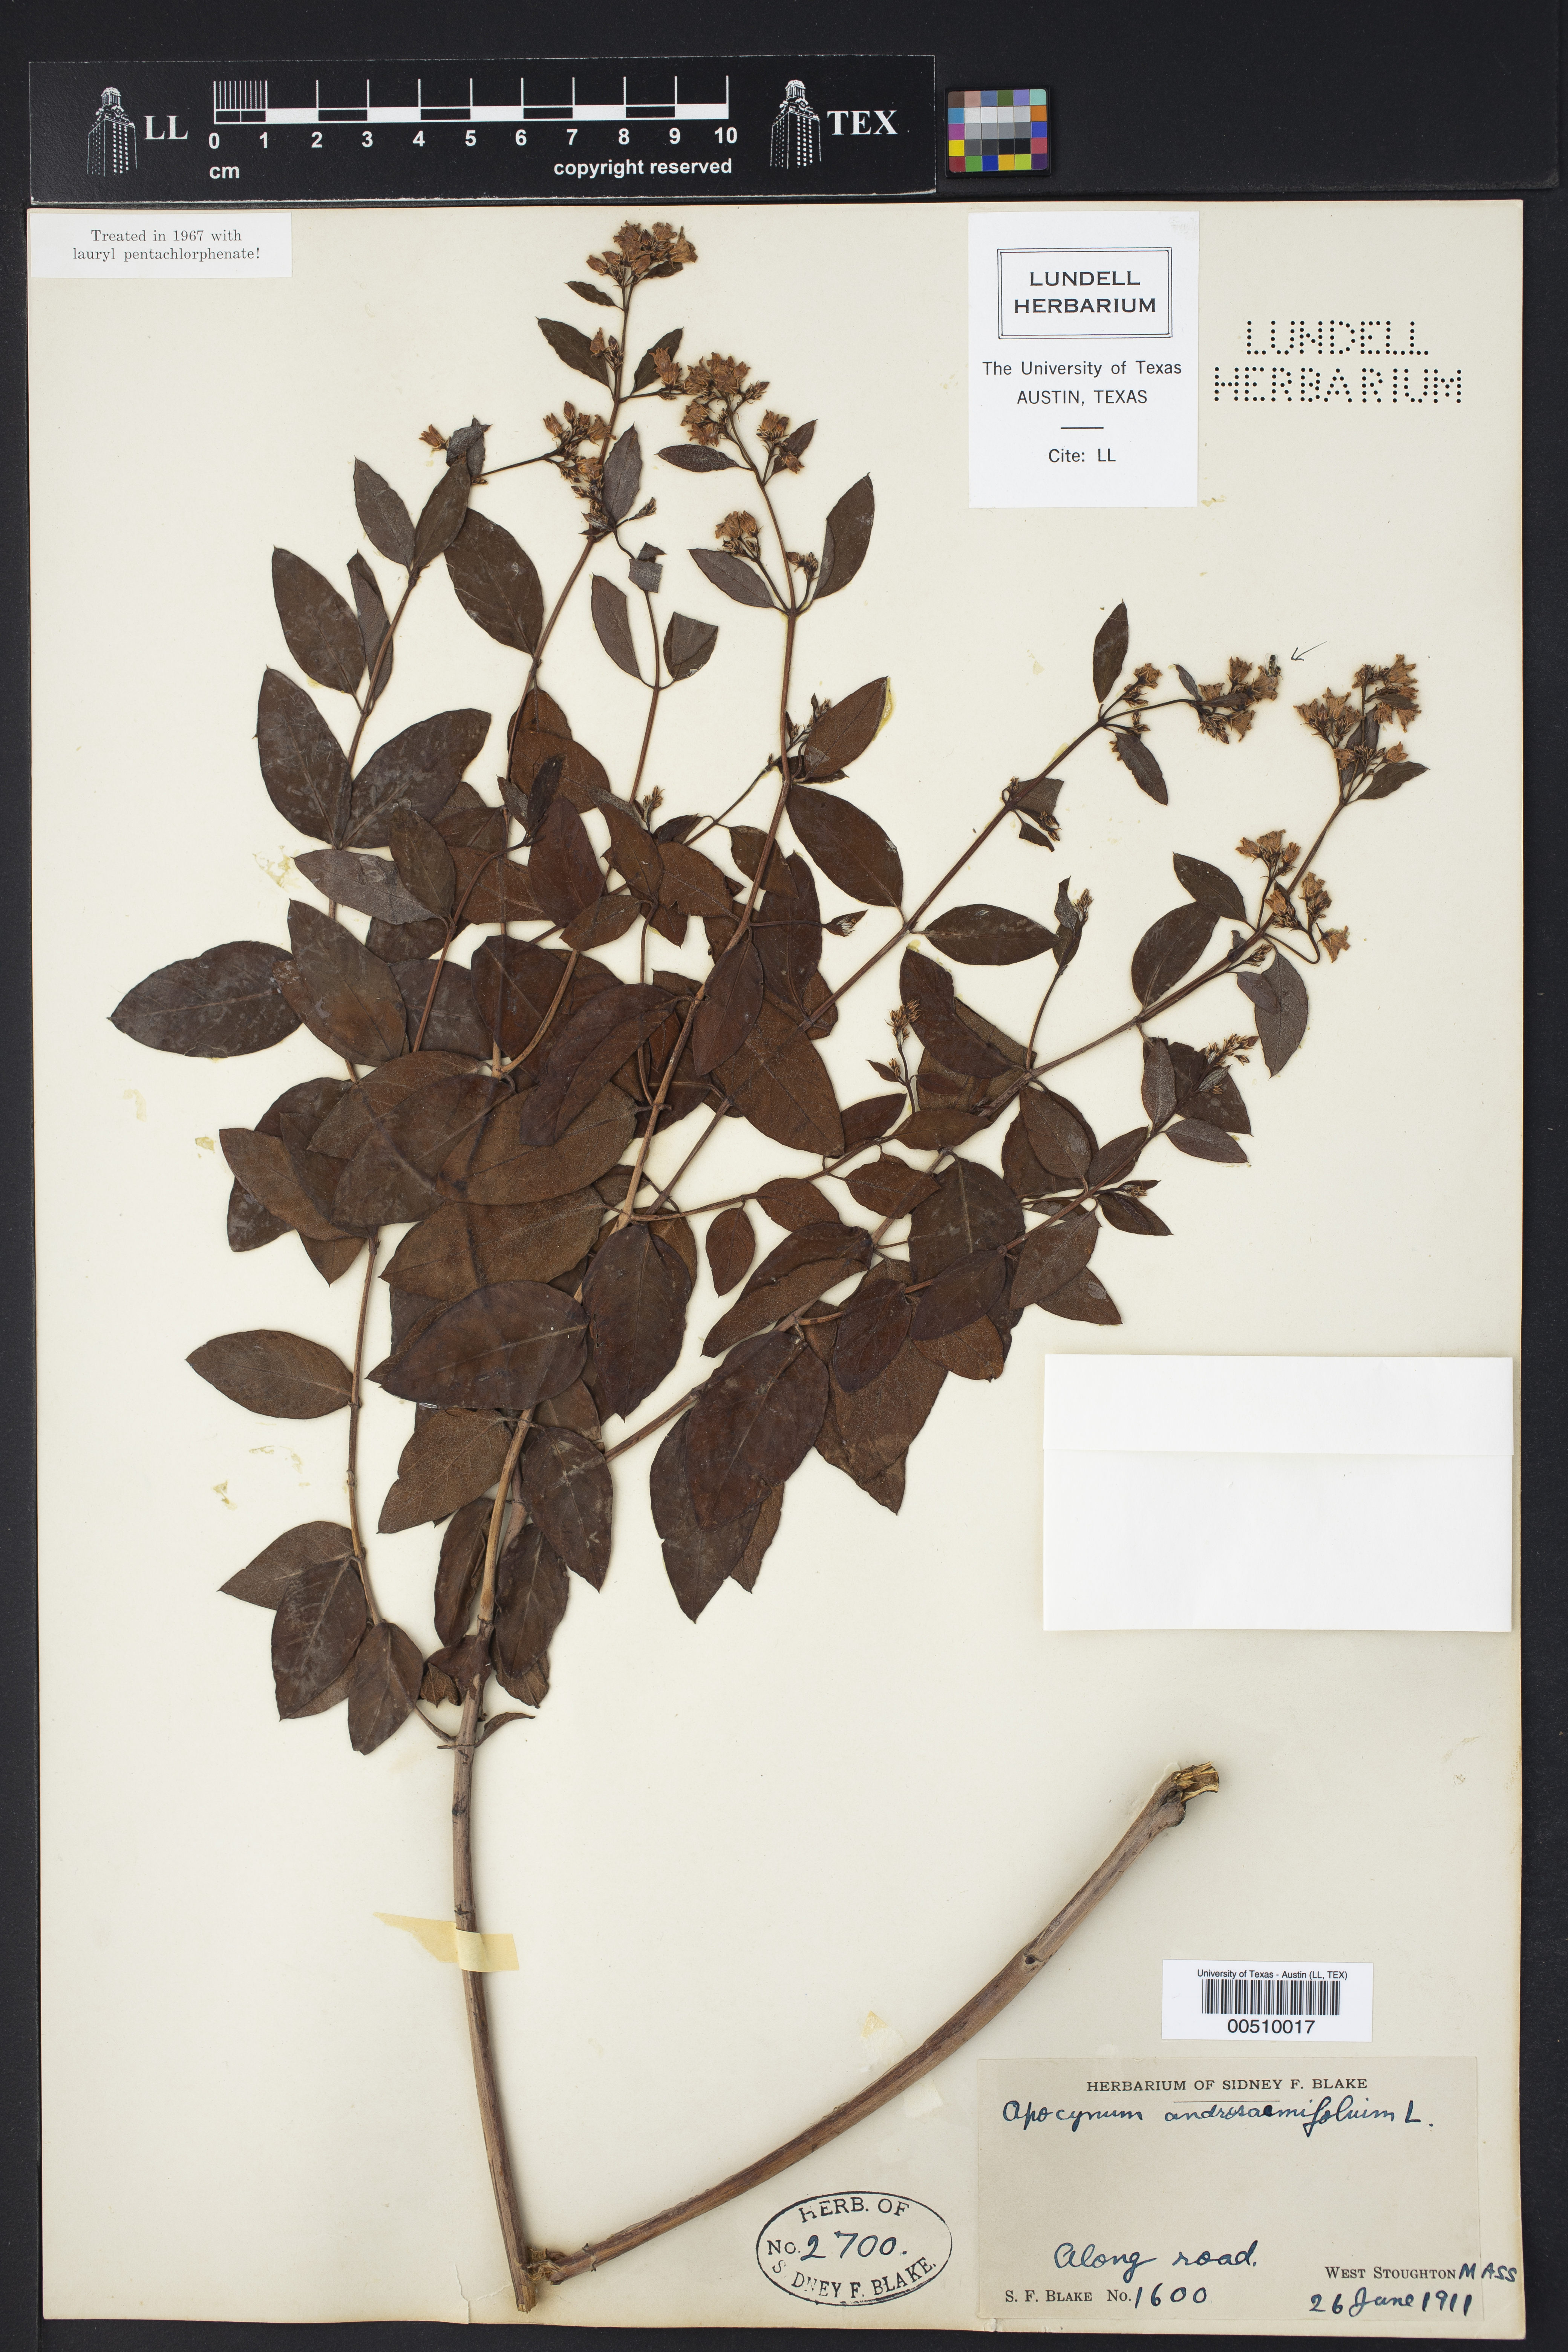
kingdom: Plantae
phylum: Tracheophyta
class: Magnoliopsida
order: Gentianales
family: Apocynaceae
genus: Apocynum
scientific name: Apocynum androsaemifolium
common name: Spreading dogbane
